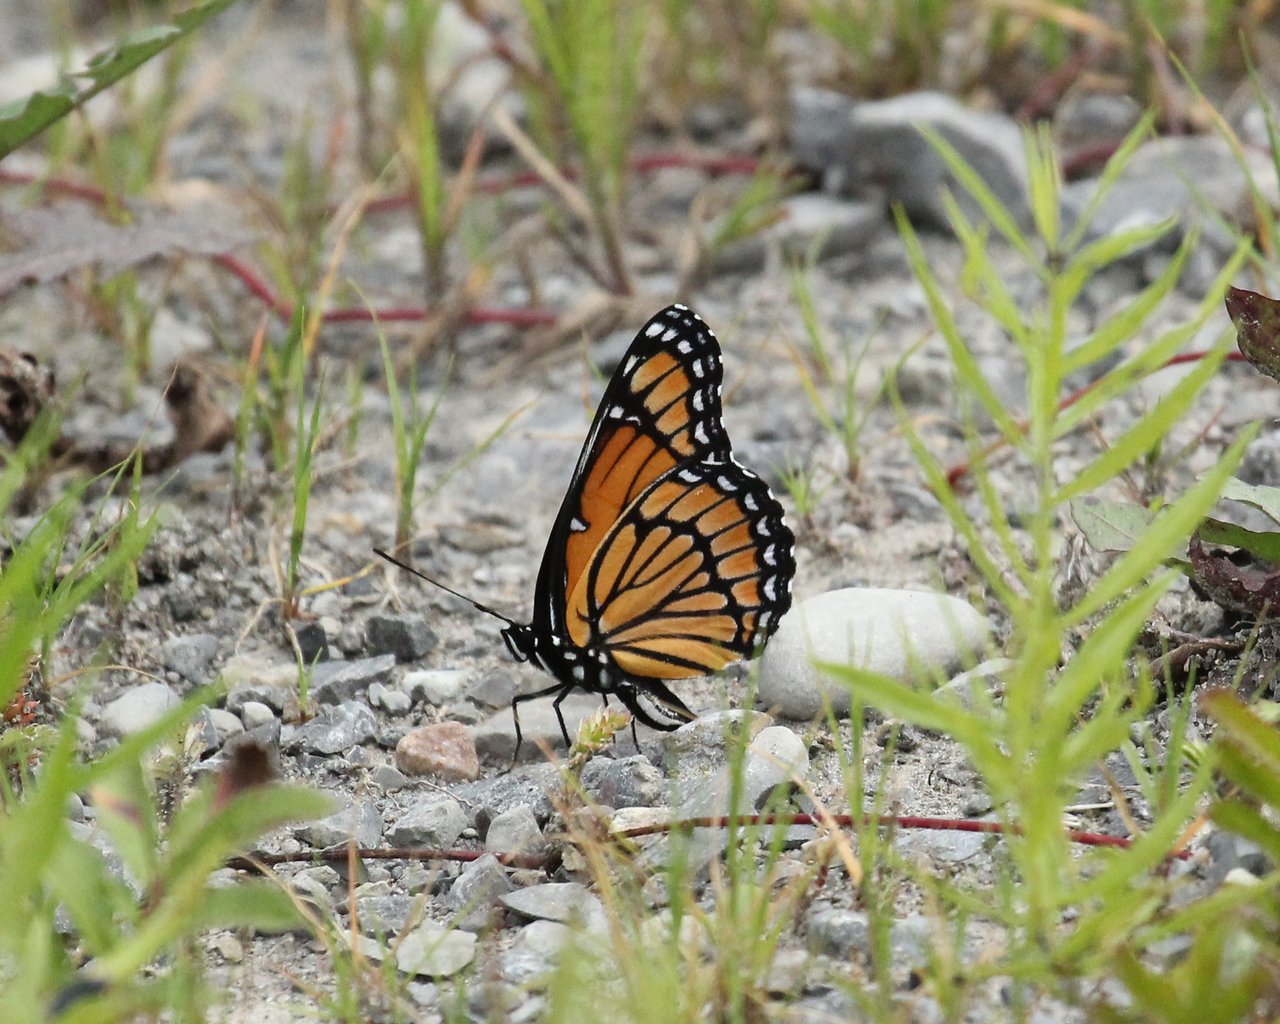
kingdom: Animalia
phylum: Arthropoda
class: Insecta
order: Lepidoptera
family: Nymphalidae
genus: Limenitis
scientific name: Limenitis archippus
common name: Viceroy
